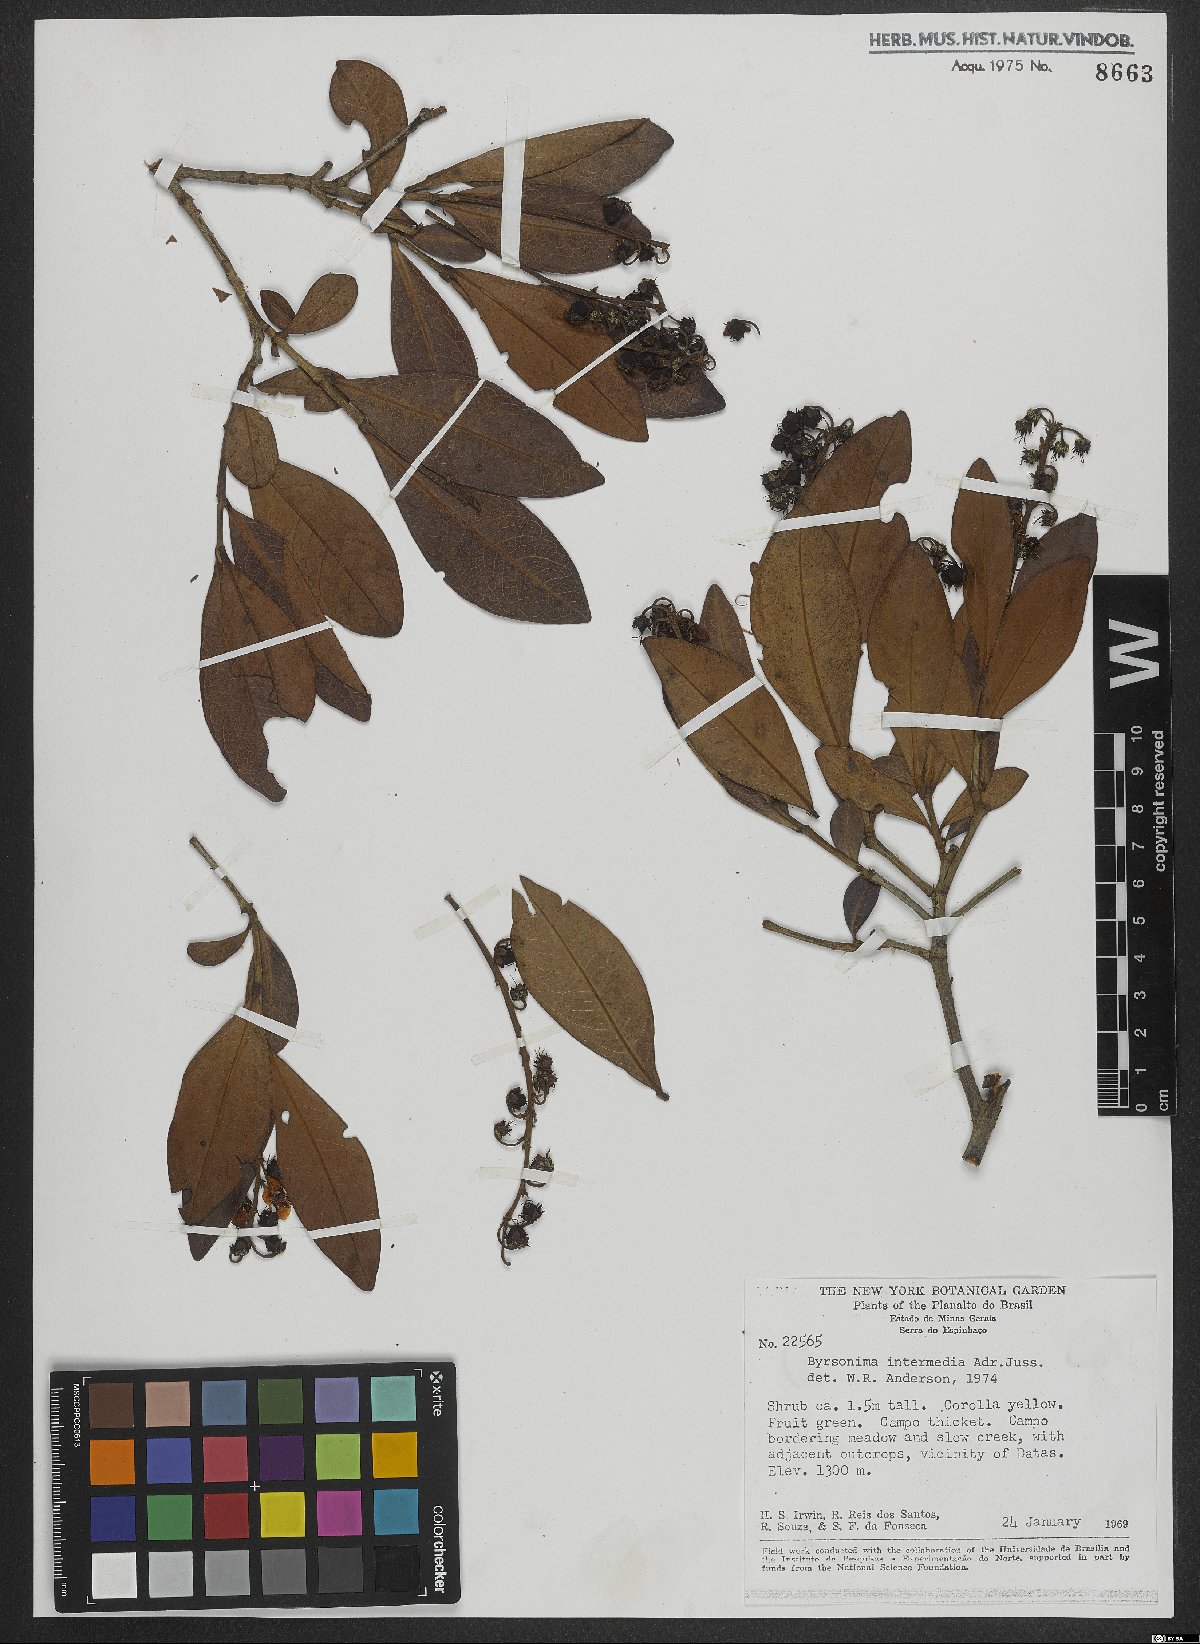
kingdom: Plantae
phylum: Tracheophyta
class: Magnoliopsida
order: Malpighiales
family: Malpighiaceae
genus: Byrsonima
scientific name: Byrsonima intermedia
